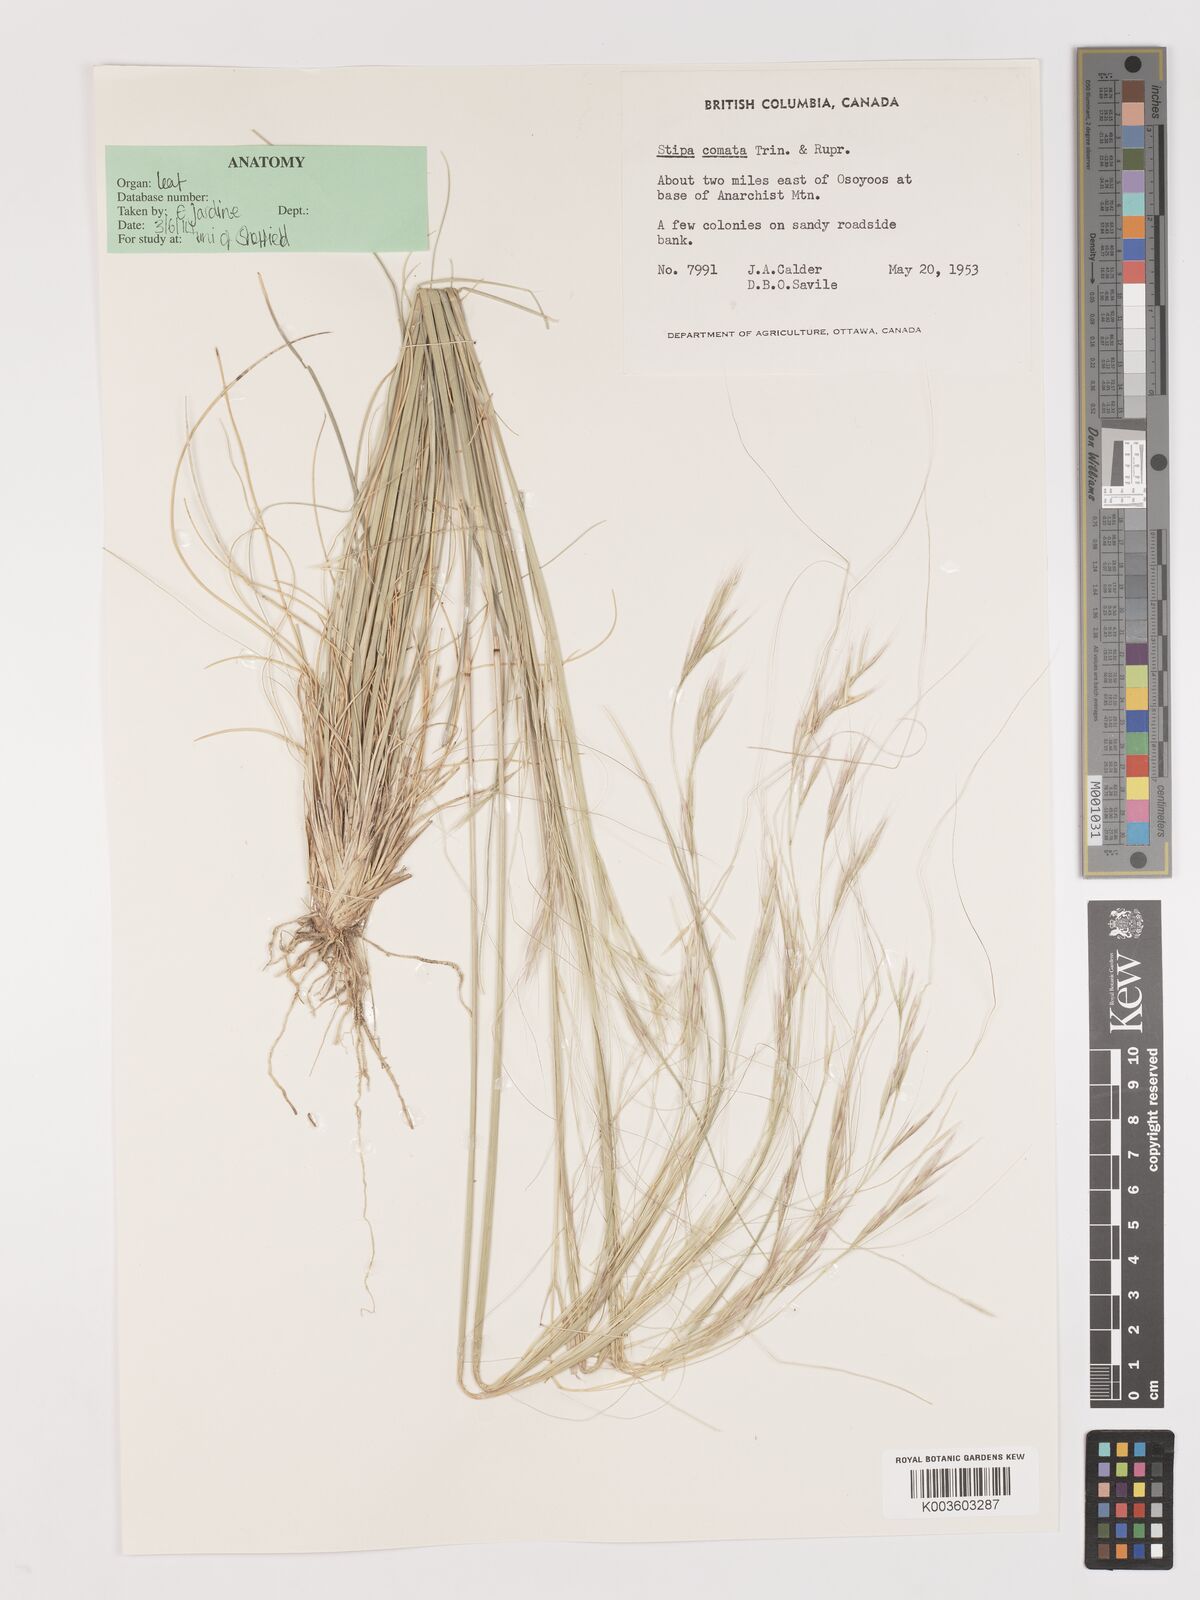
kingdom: Plantae
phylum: Tracheophyta
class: Liliopsida
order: Poales
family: Poaceae
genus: Stipa
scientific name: Stipa
